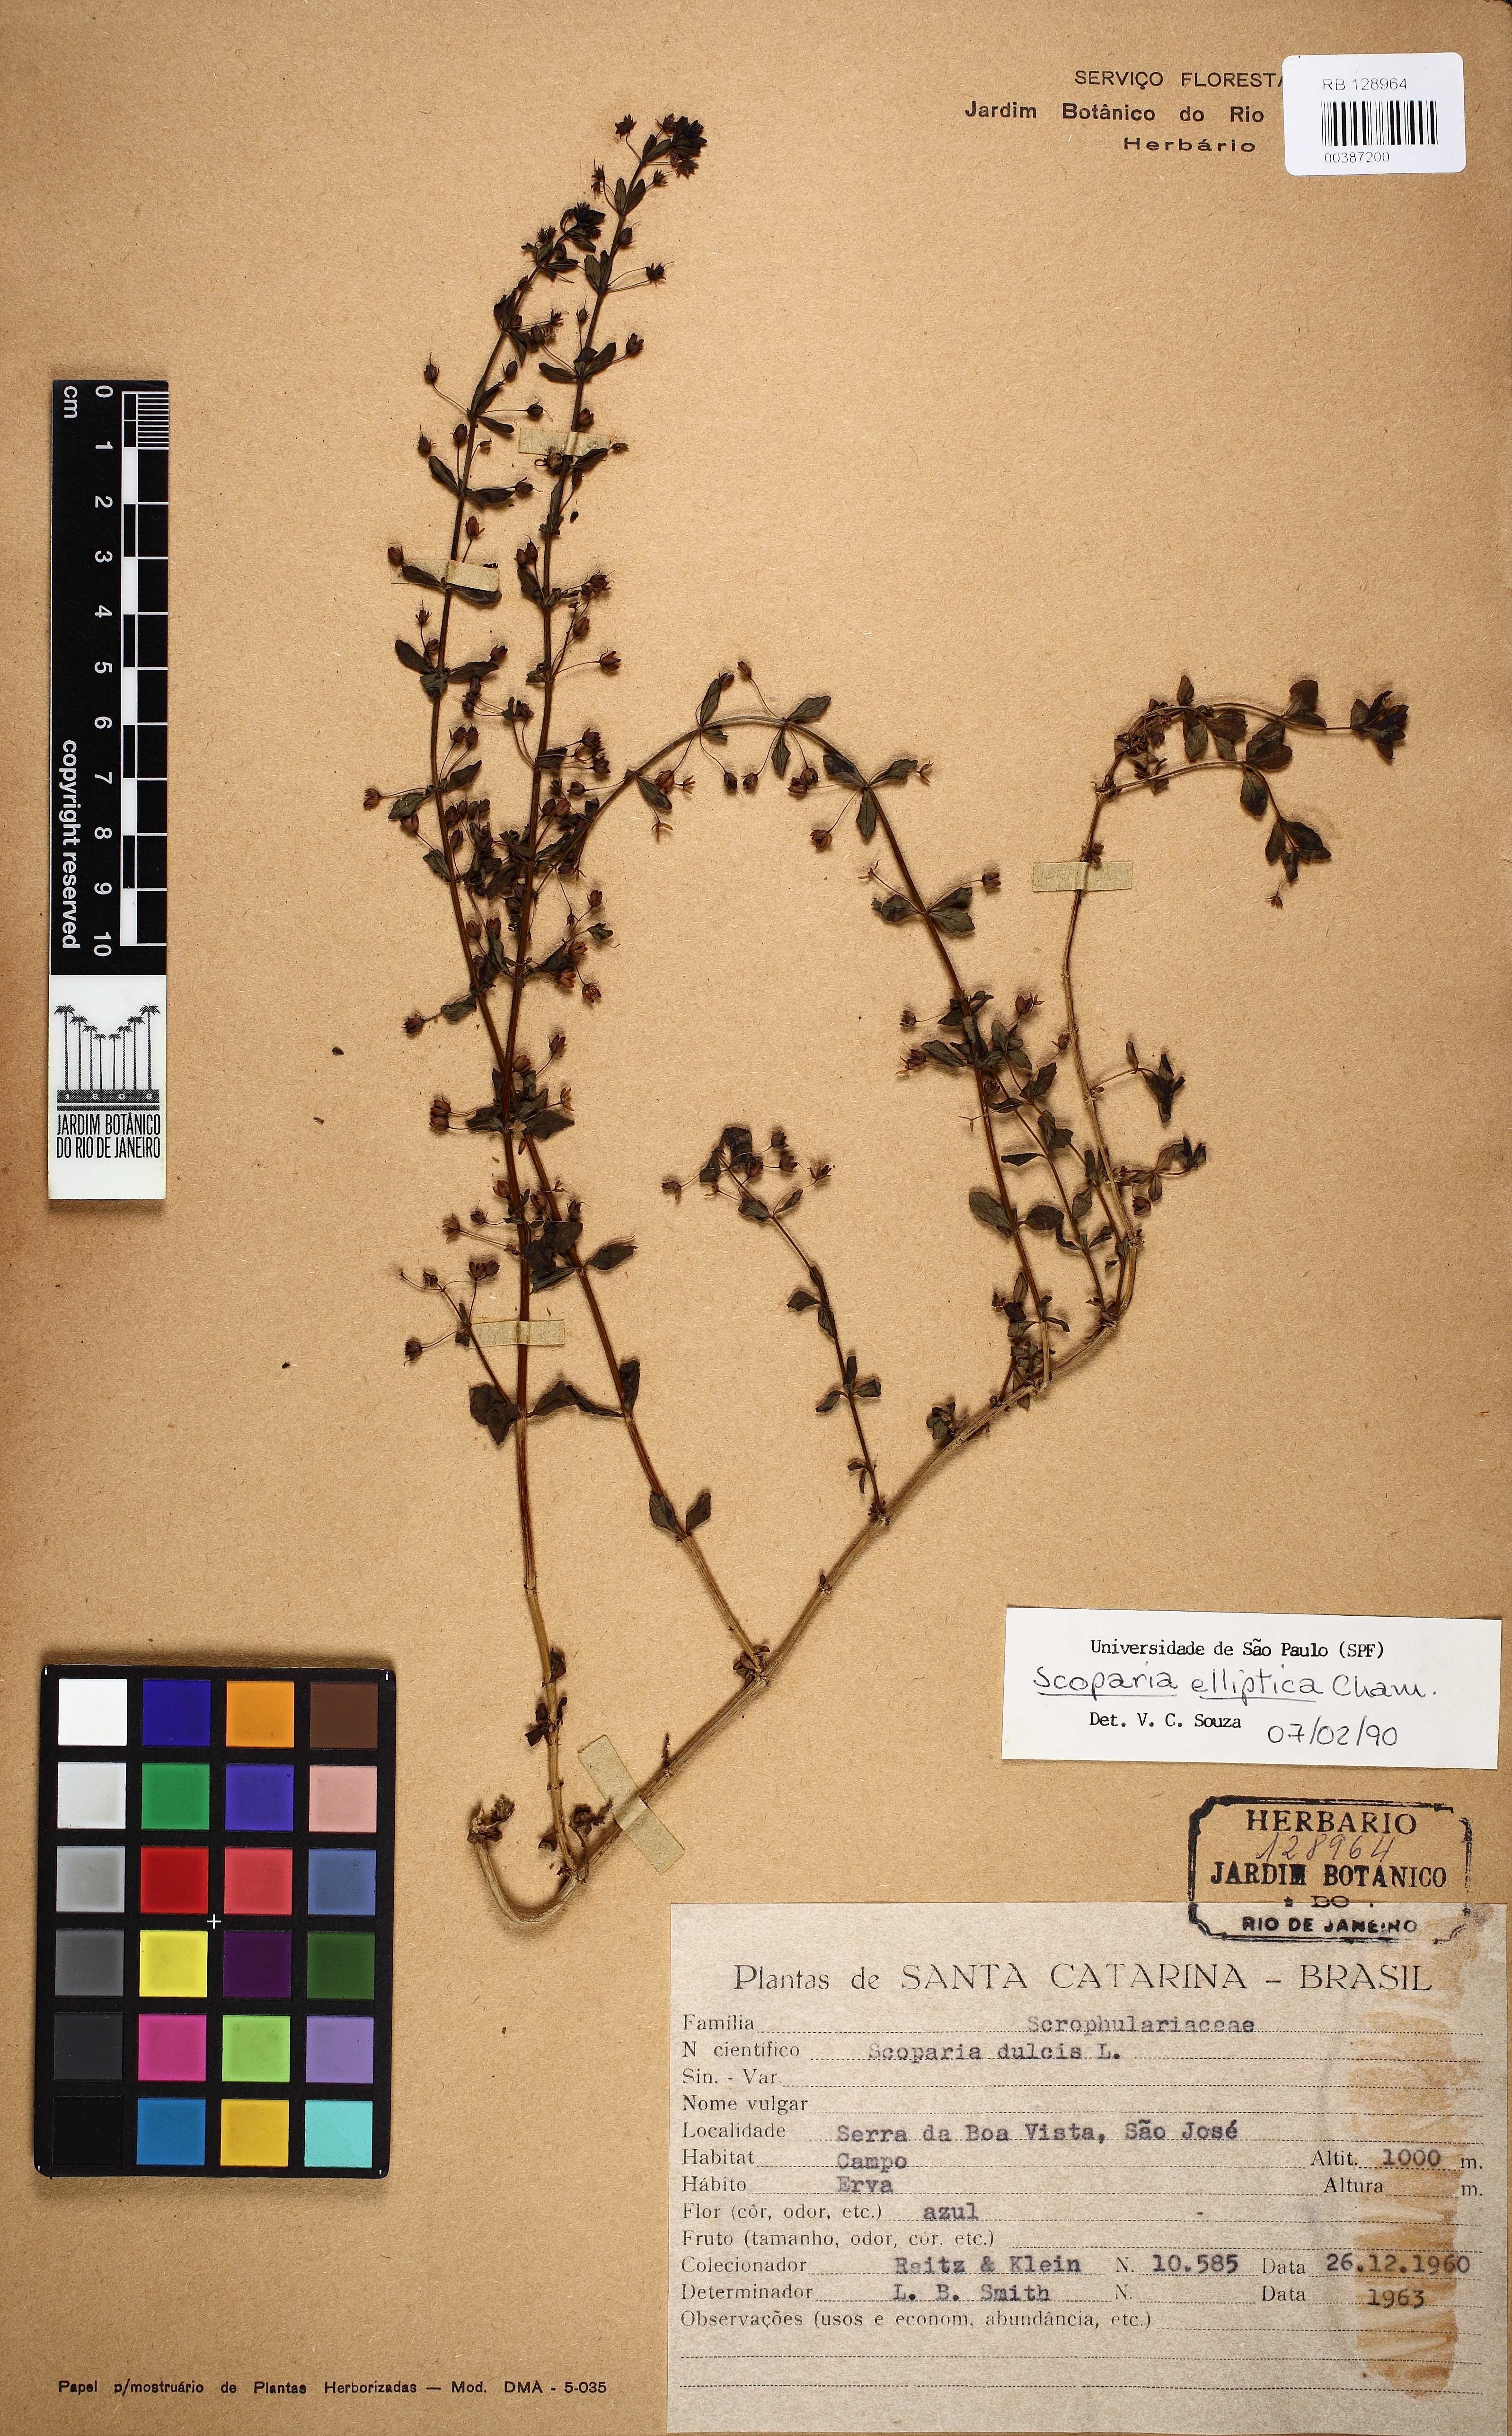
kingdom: Plantae
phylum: Tracheophyta
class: Magnoliopsida
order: Lamiales
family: Plantaginaceae
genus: Scoparia
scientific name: Scoparia elliptica
